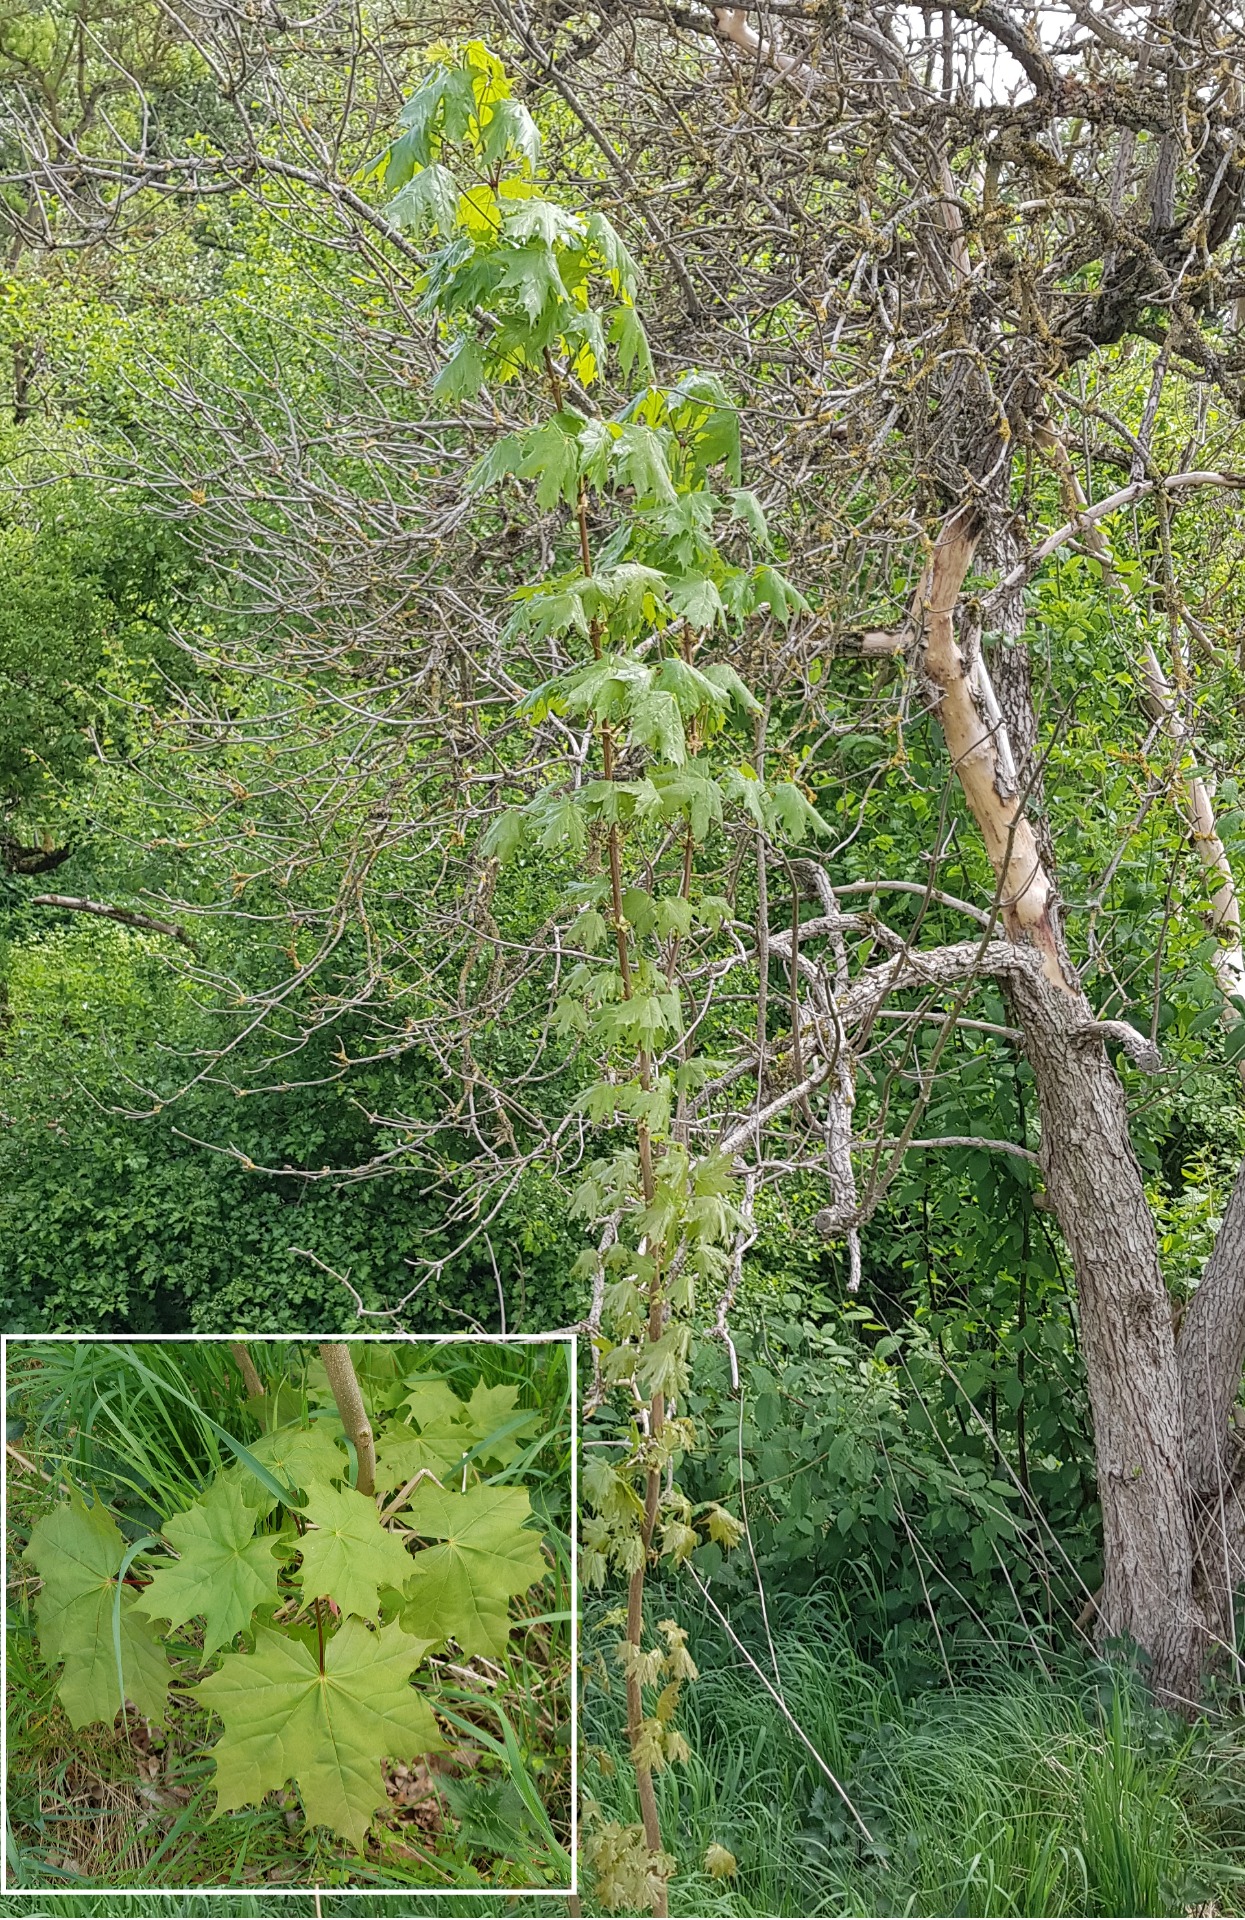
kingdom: Plantae
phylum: Tracheophyta
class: Magnoliopsida
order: Sapindales
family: Sapindaceae
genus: Acer
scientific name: Acer platanoides
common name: Spids-løn
